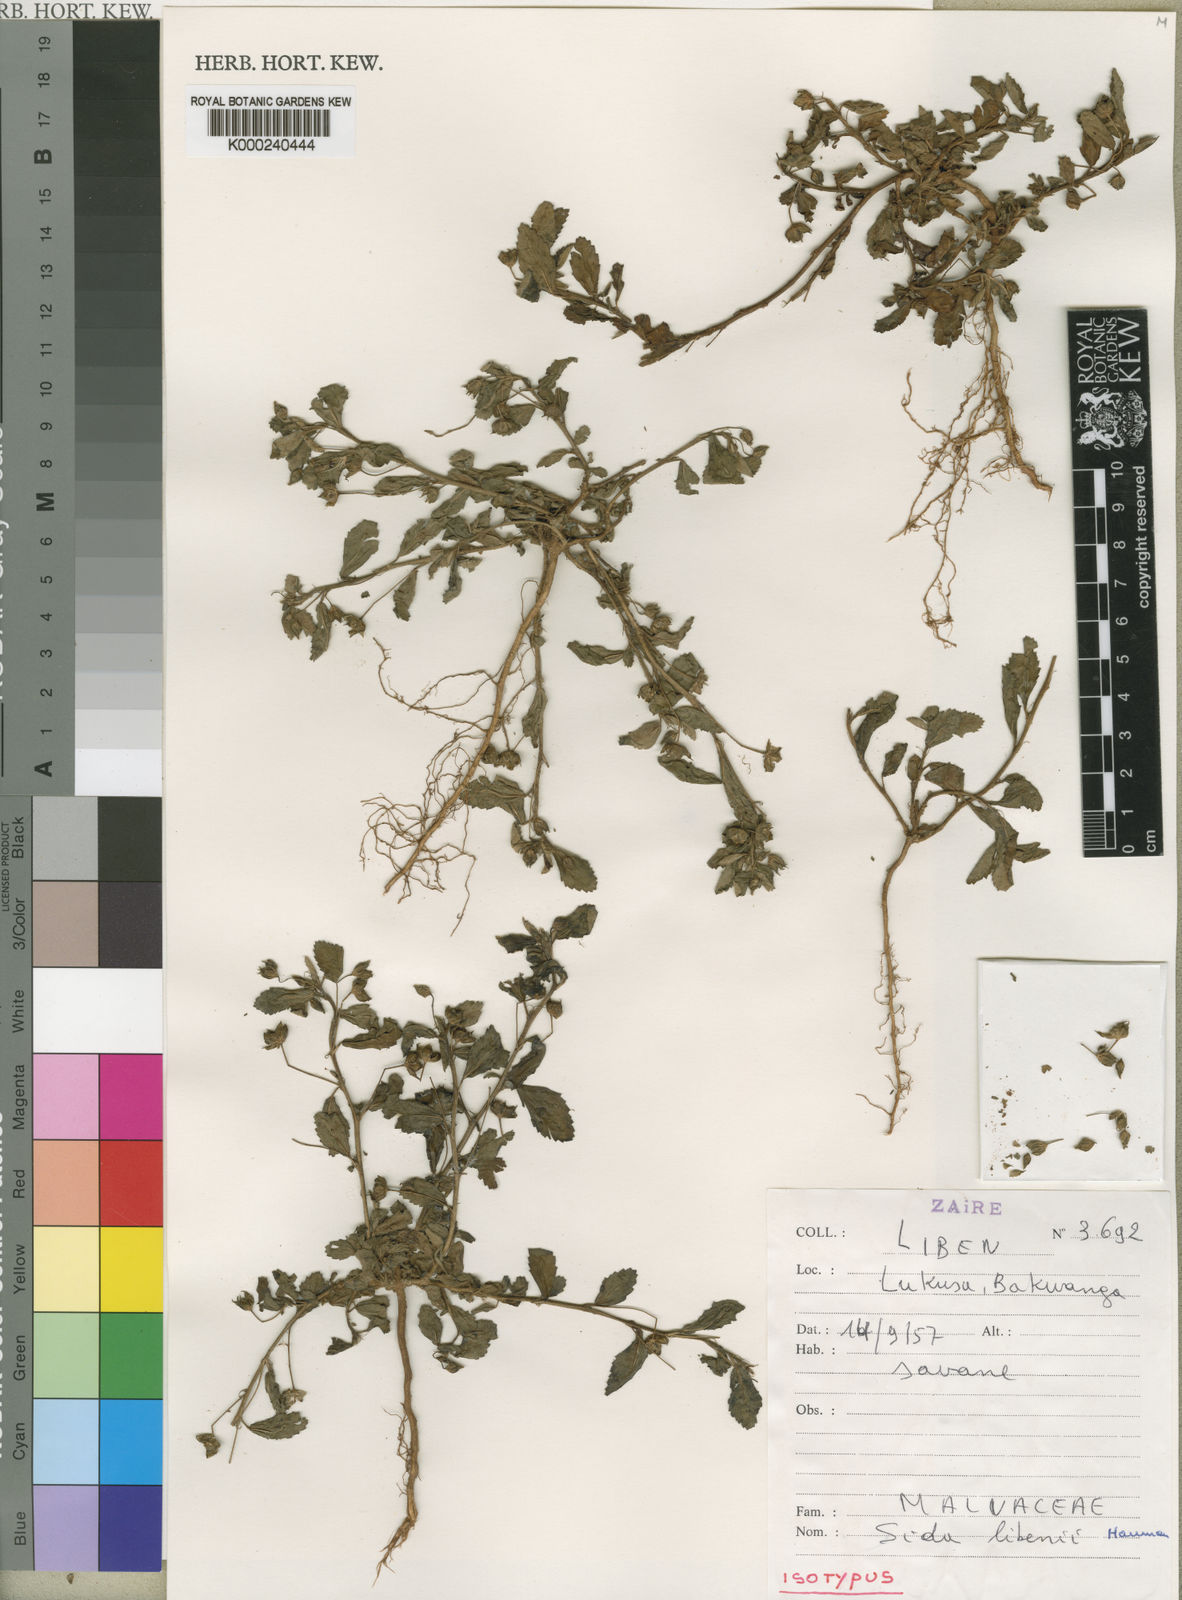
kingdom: Plantae
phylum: Tracheophyta
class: Magnoliopsida
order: Malvales
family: Malvaceae
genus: Sida
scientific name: Sida libenii
